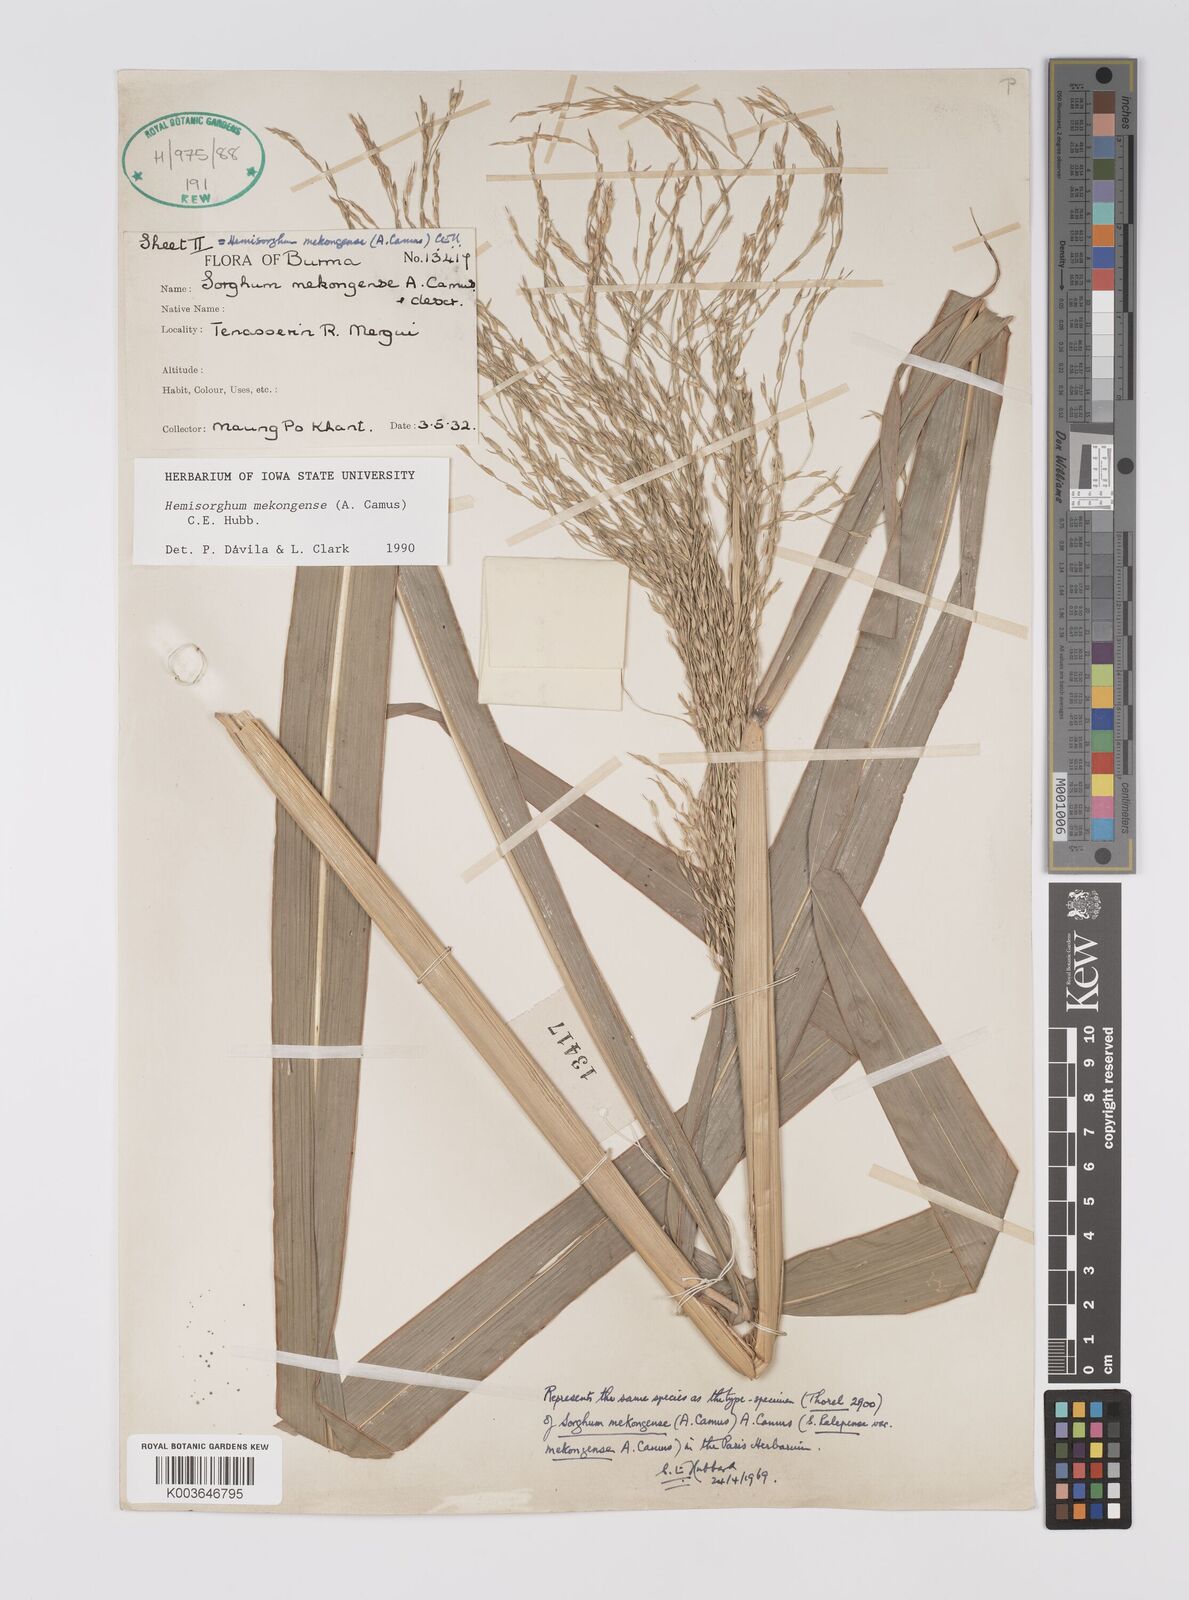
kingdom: Plantae
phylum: Tracheophyta
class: Liliopsida
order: Poales
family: Poaceae
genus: Hemisorghum
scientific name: Hemisorghum mekongense
